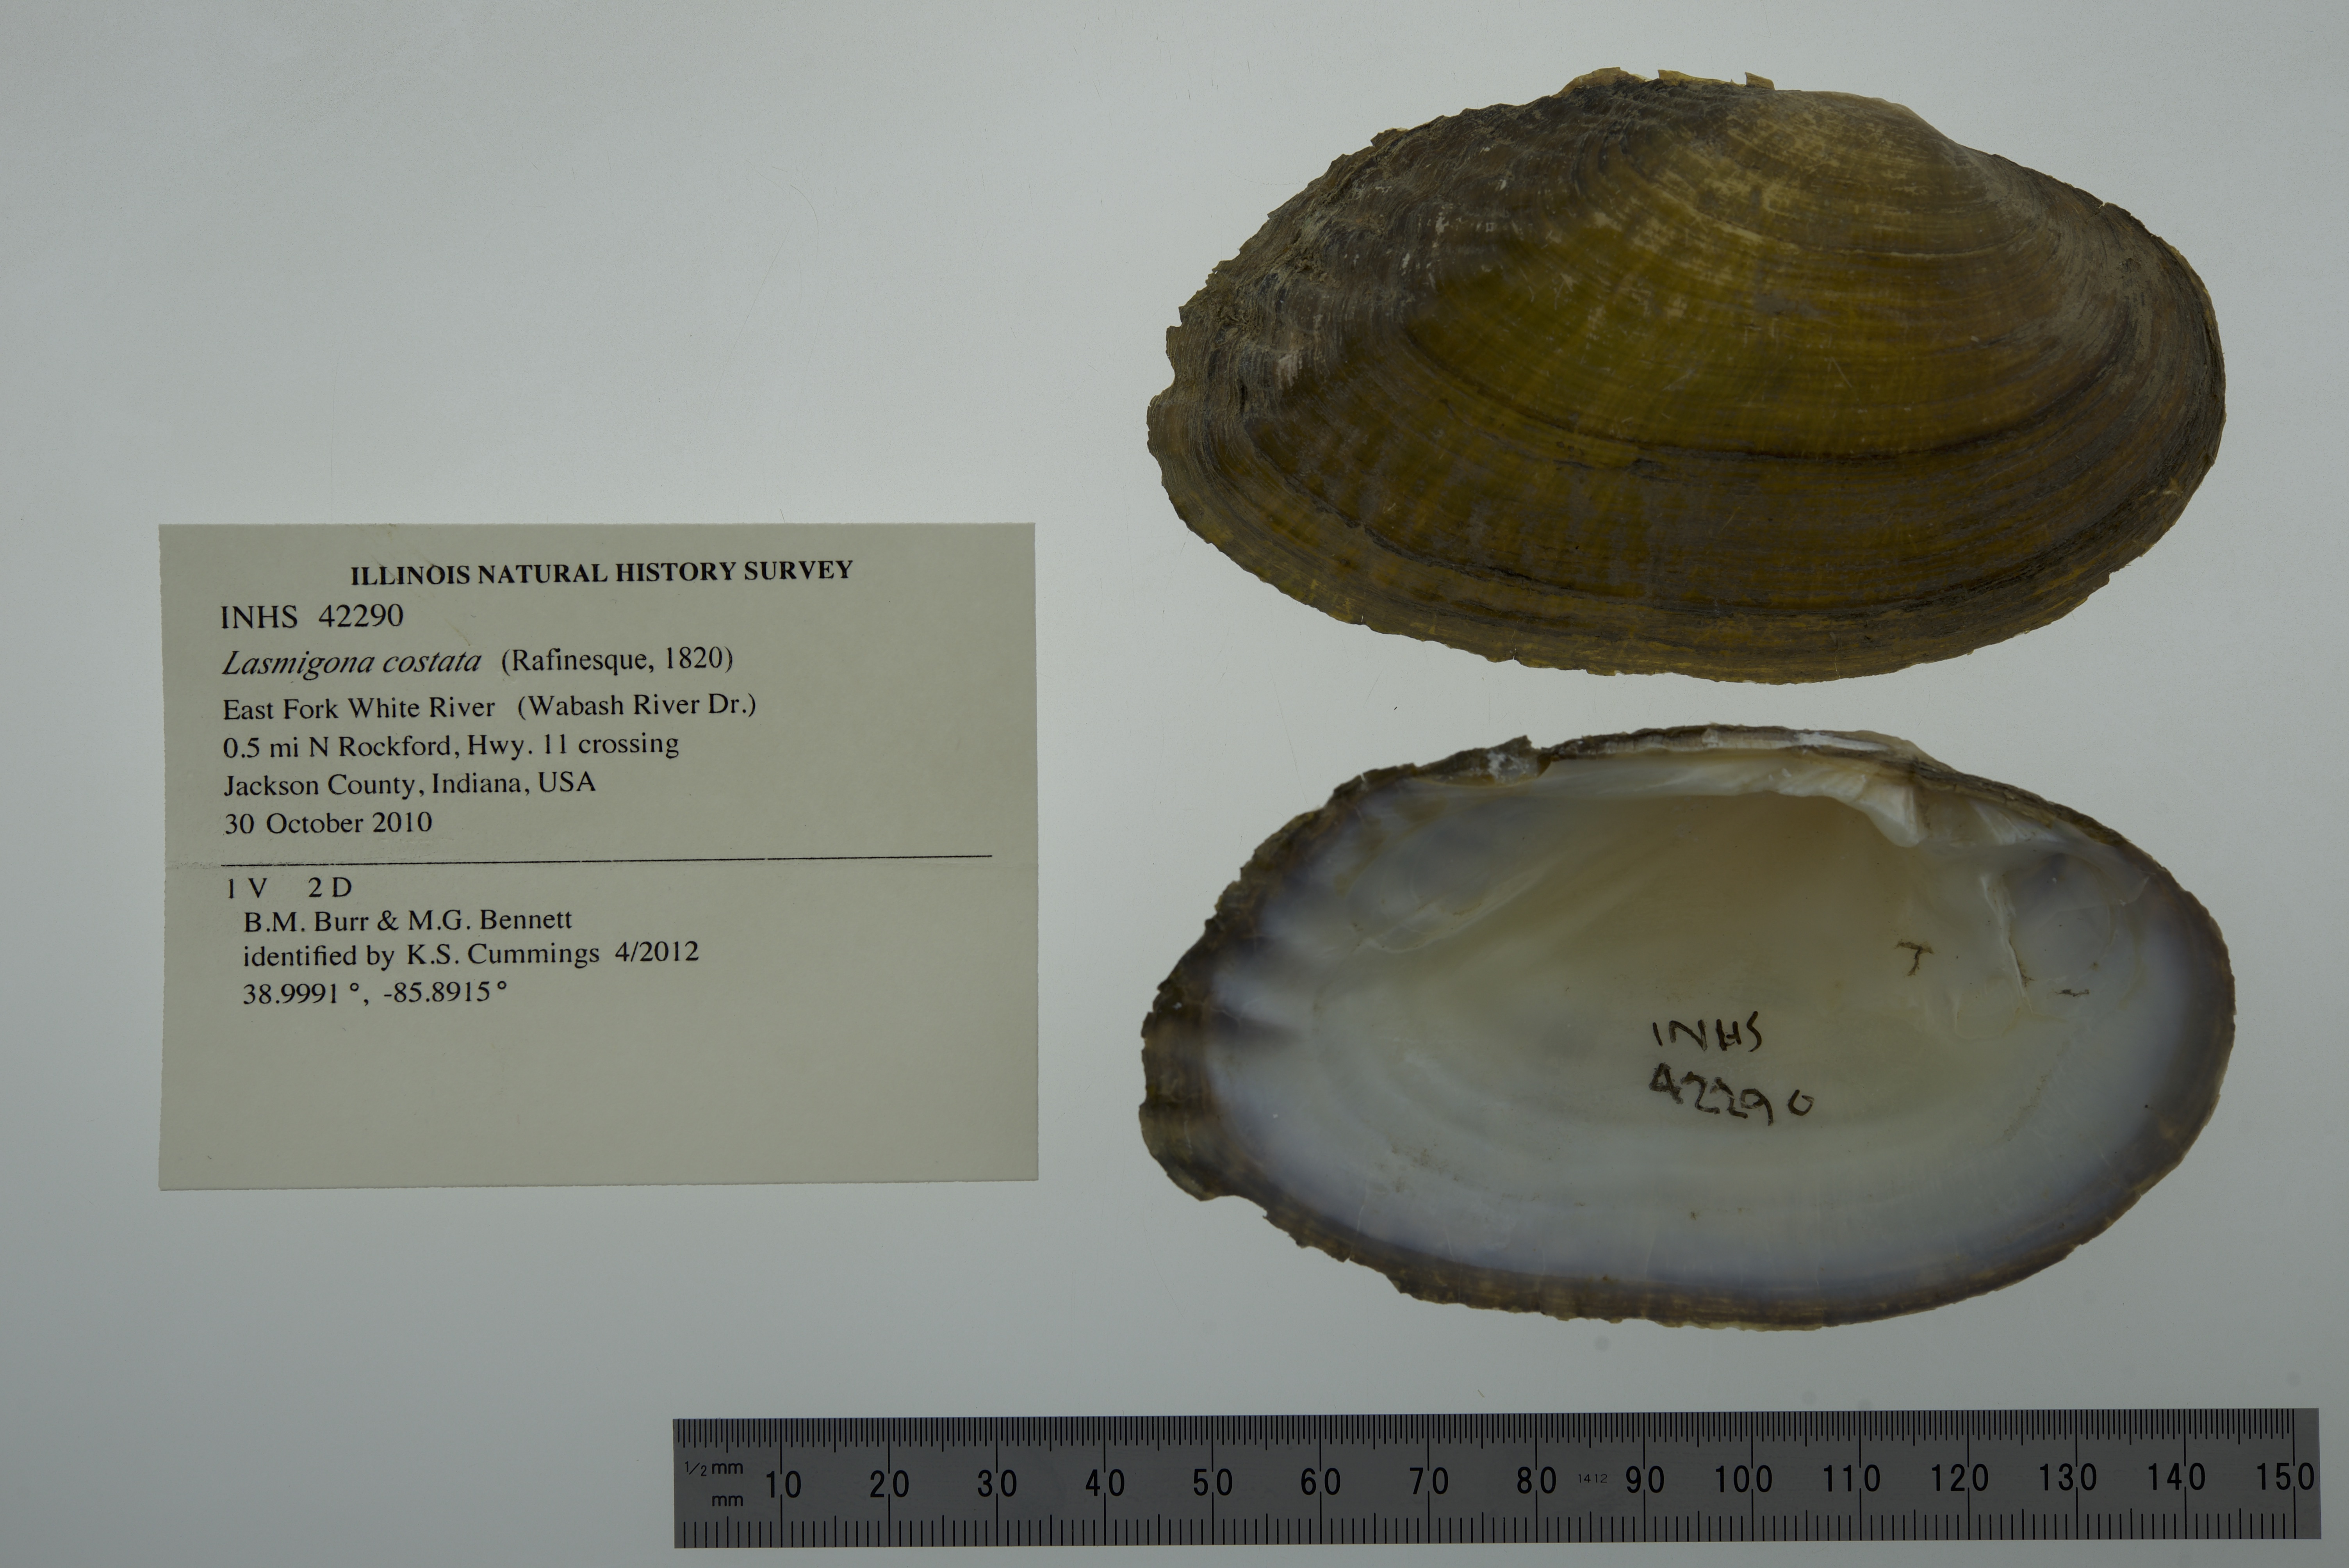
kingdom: Animalia
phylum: Mollusca
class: Bivalvia
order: Unionida
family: Unionidae
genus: Lasmigona
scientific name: Lasmigona costata
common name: Flutedshell
